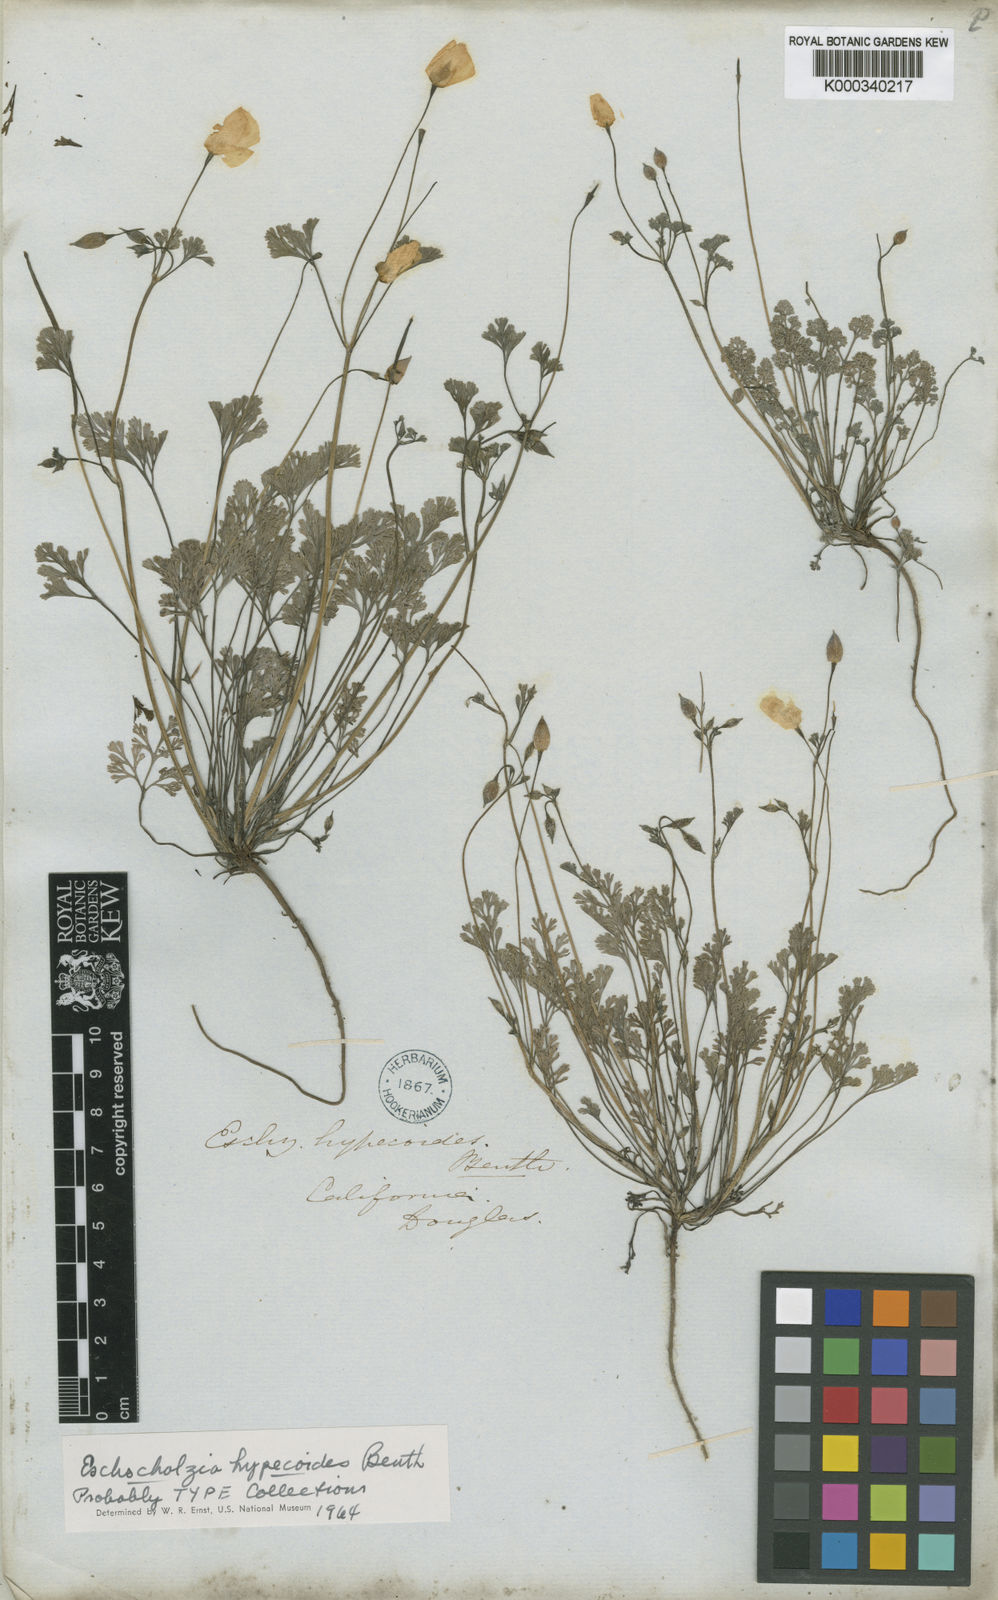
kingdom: Plantae
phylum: Tracheophyta
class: Magnoliopsida
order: Ranunculales
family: Papaveraceae
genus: Eschscholzia
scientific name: Eschscholzia hypecoides
